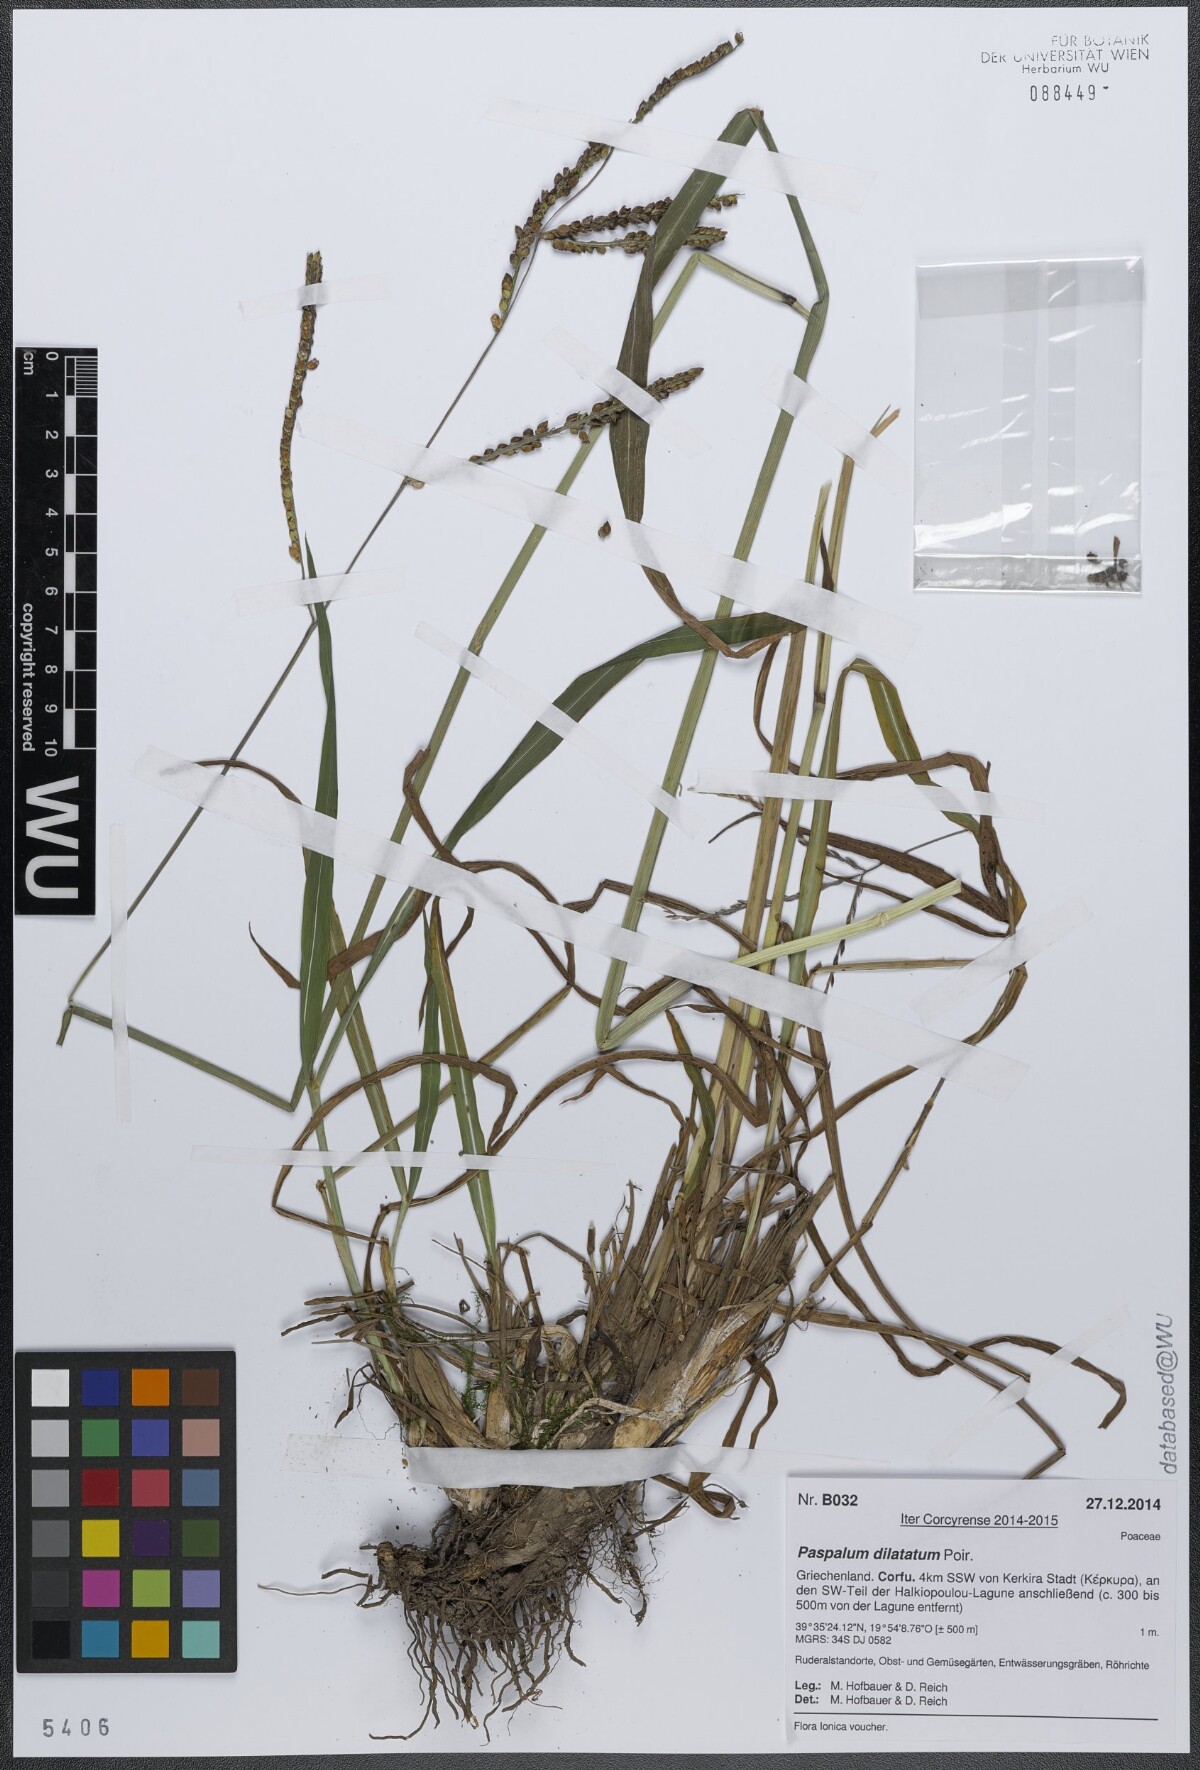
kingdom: Plantae
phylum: Tracheophyta
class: Liliopsida
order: Poales
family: Poaceae
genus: Paspalum
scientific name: Paspalum dilatatum
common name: Dallisgrass
